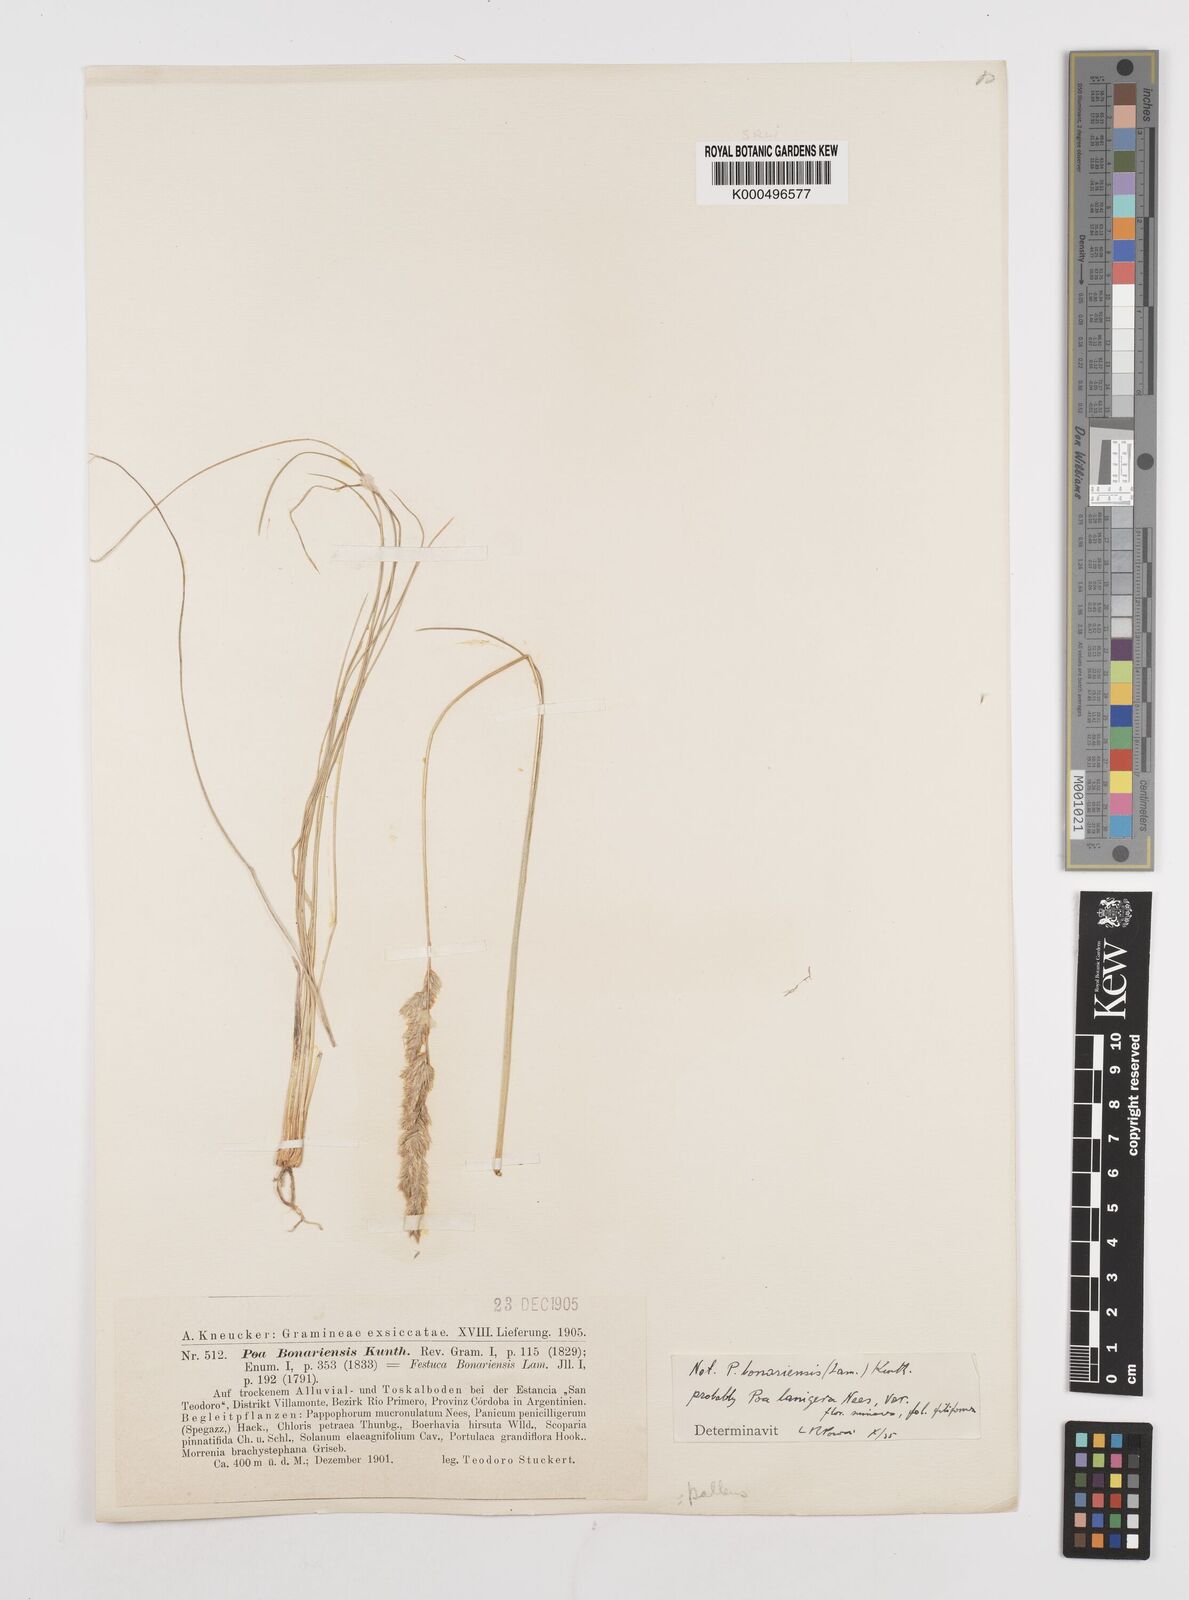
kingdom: Plantae
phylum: Tracheophyta
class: Liliopsida
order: Poales
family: Poaceae
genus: Poa
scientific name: Poa lanigera
